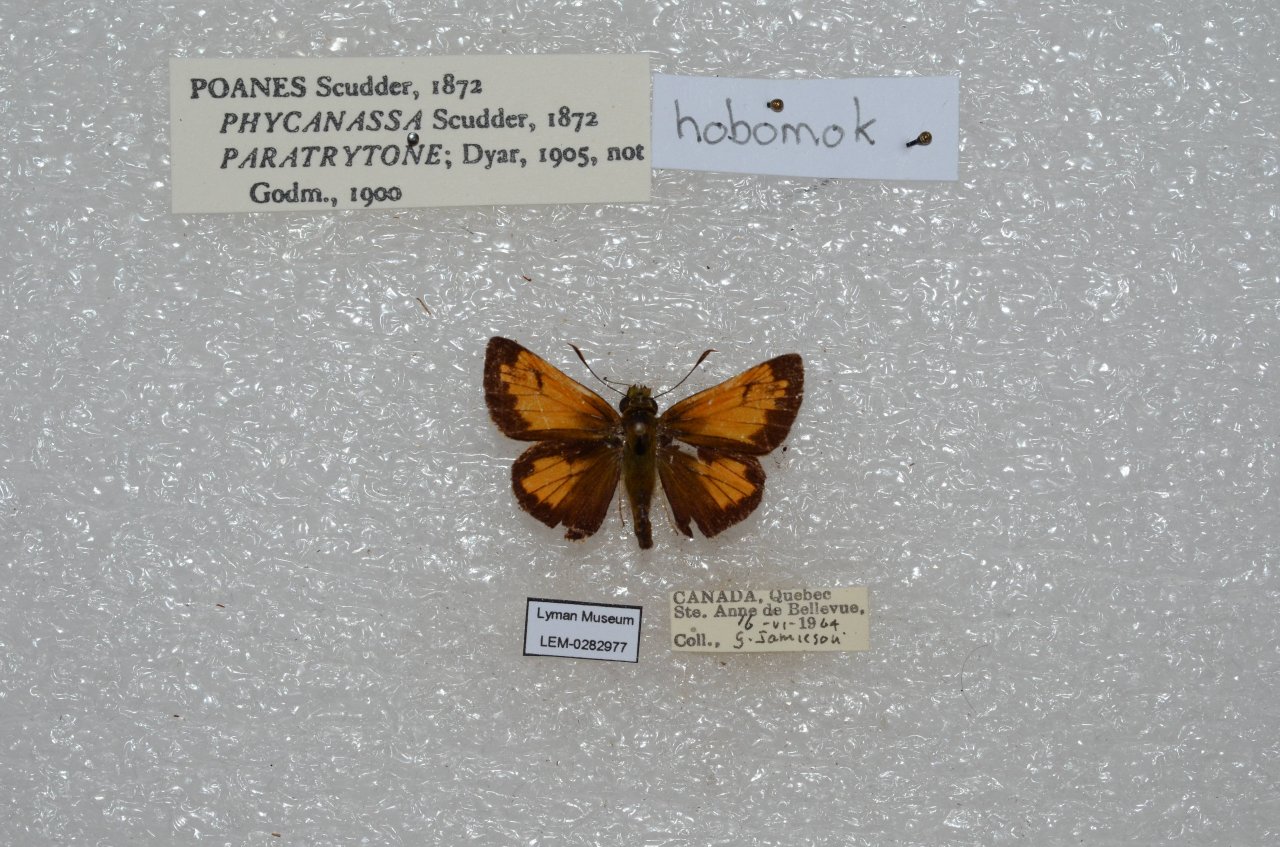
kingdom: Animalia
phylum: Arthropoda
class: Insecta
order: Lepidoptera
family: Hesperiidae
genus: Lon
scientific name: Lon hobomok
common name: Hobomok Skipper
